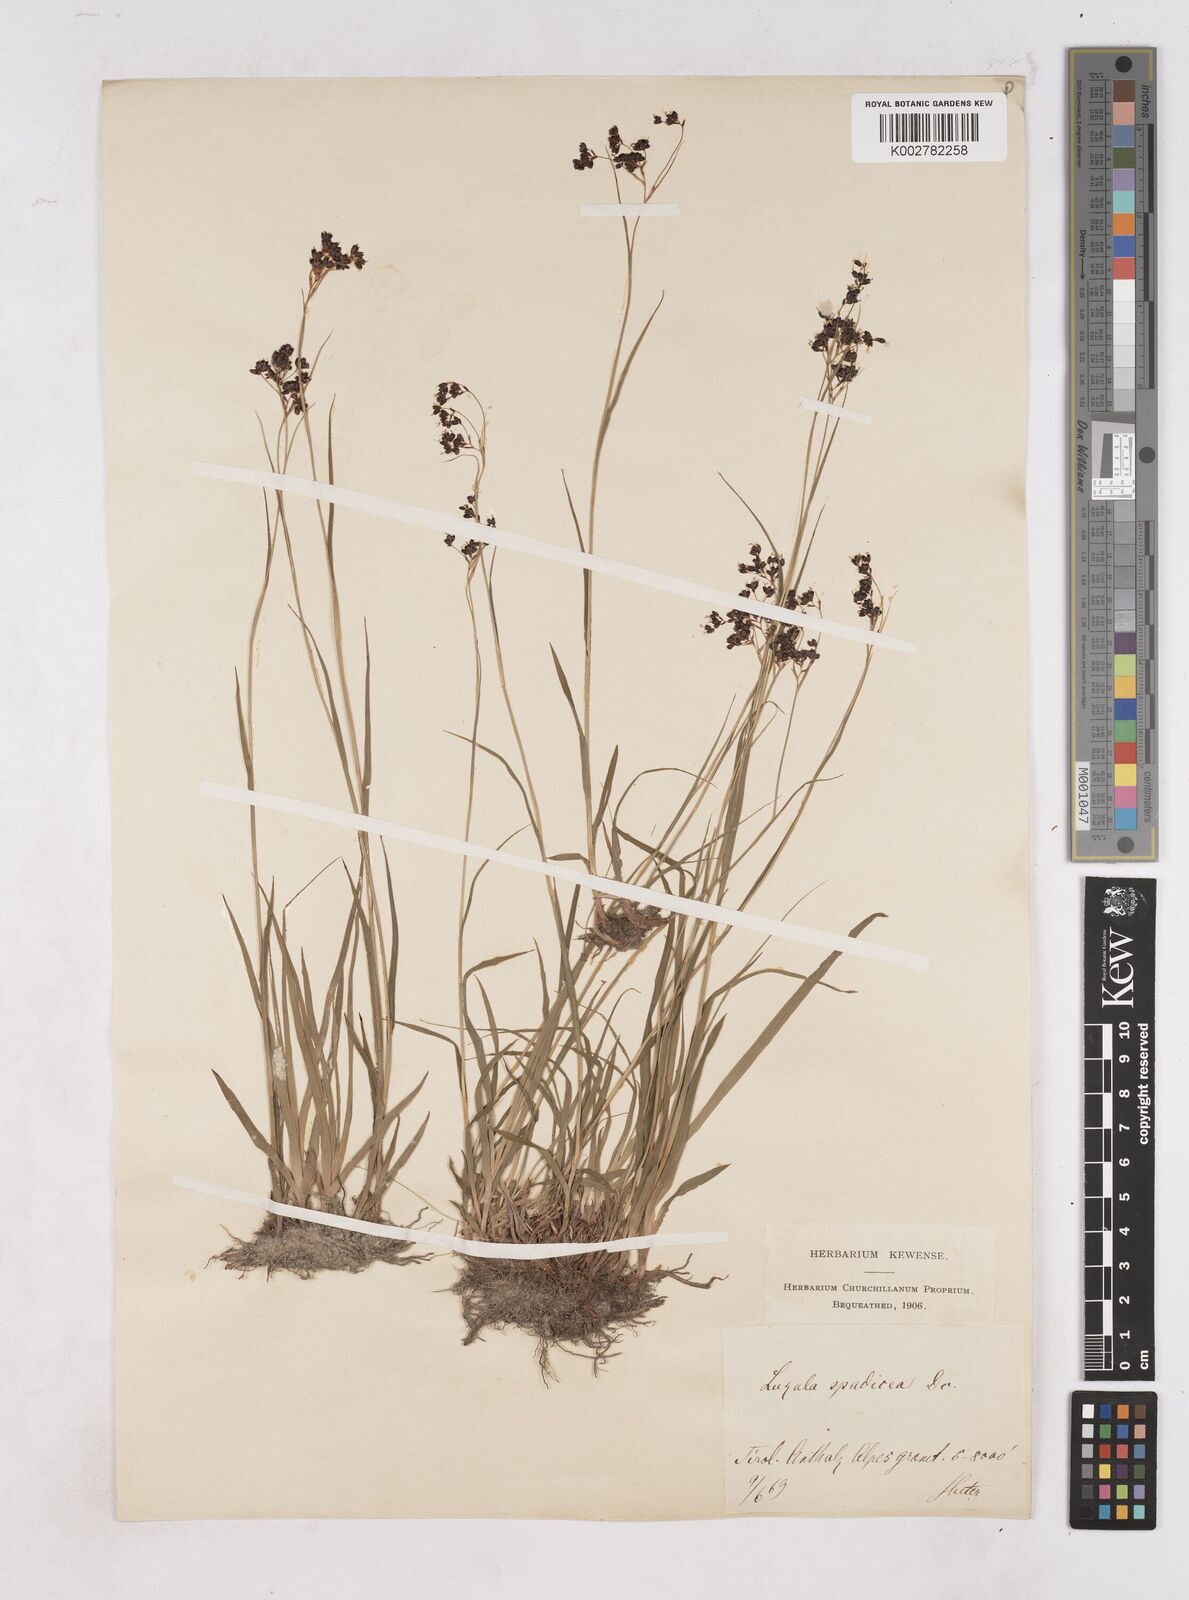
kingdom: Plantae
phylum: Tracheophyta
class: Liliopsida
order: Poales
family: Juncaceae
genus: Luzula
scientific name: Luzula alpinopilosa
